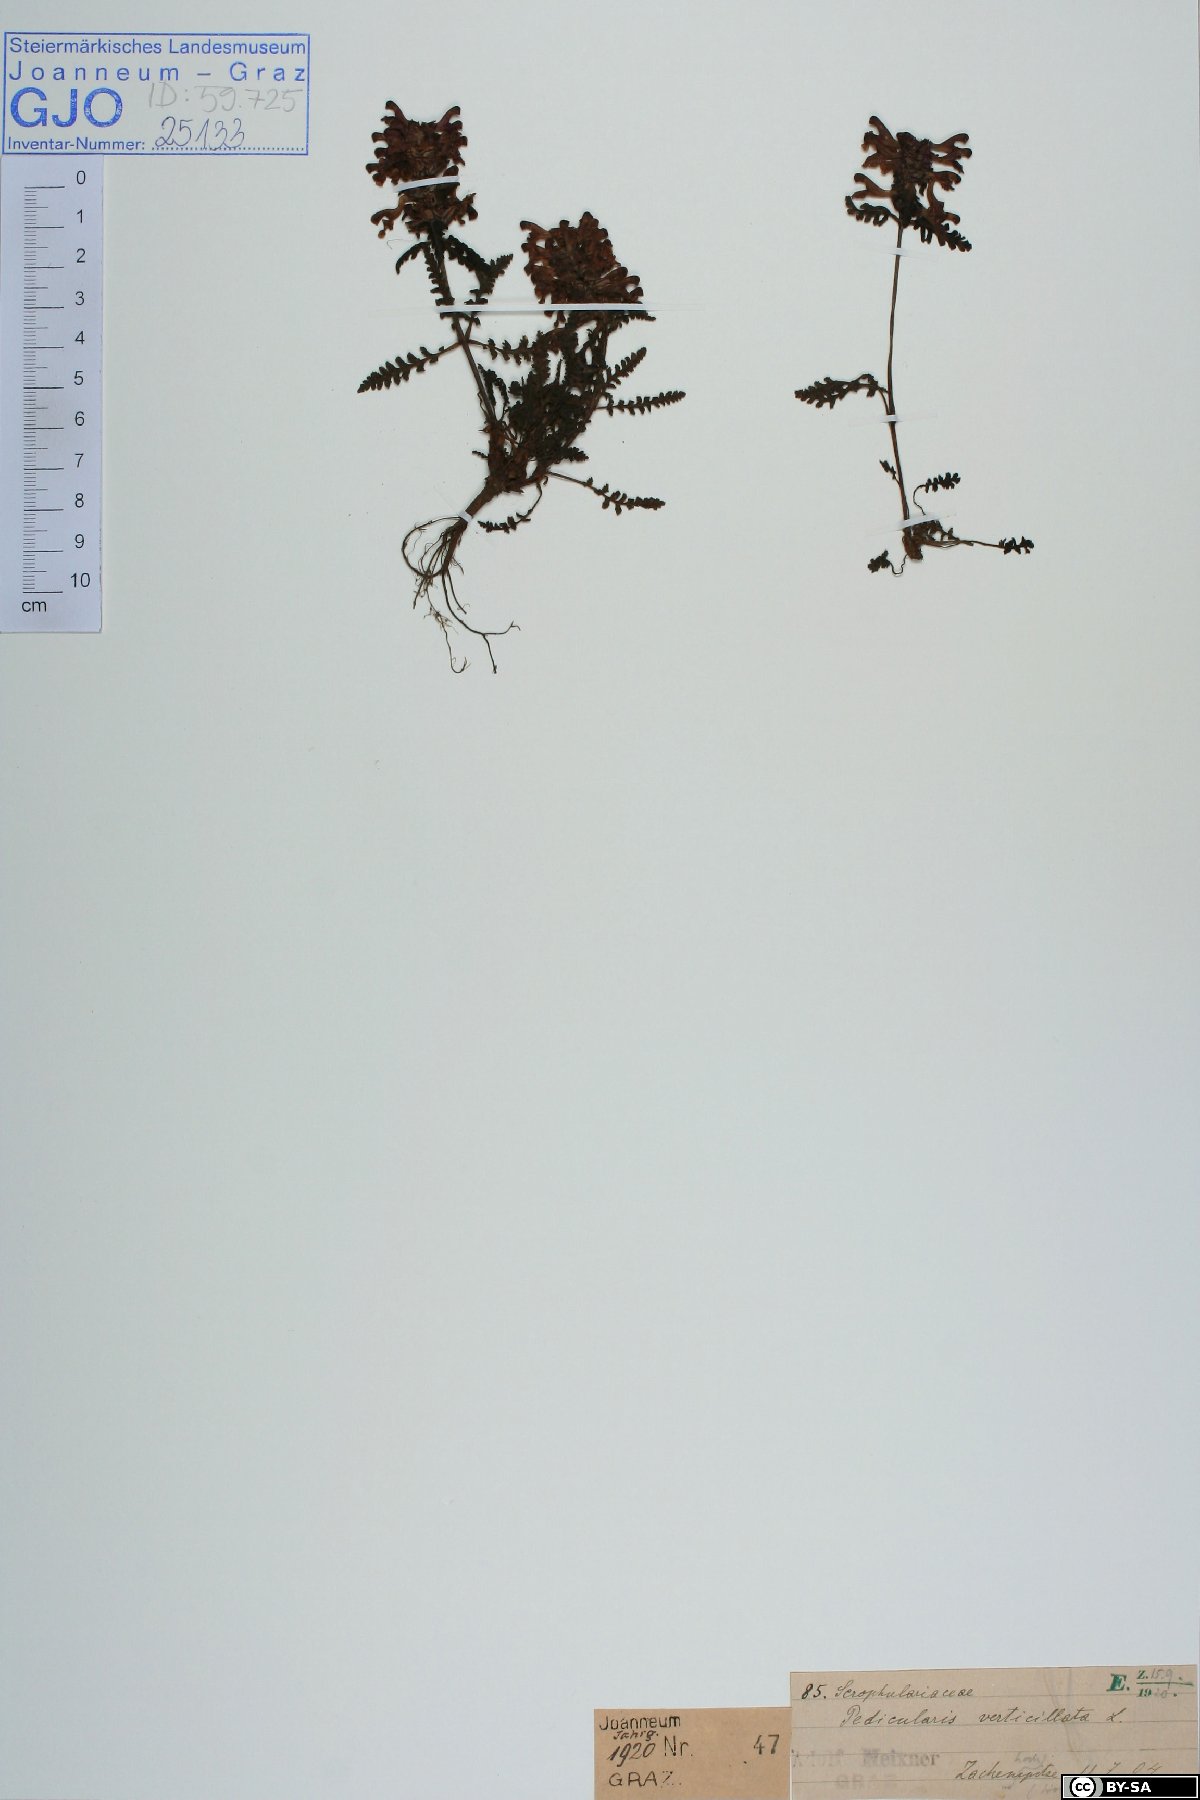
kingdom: Plantae
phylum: Tracheophyta
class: Magnoliopsida
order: Lamiales
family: Orobanchaceae
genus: Pedicularis
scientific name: Pedicularis verticillata
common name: Whorled lousewort
